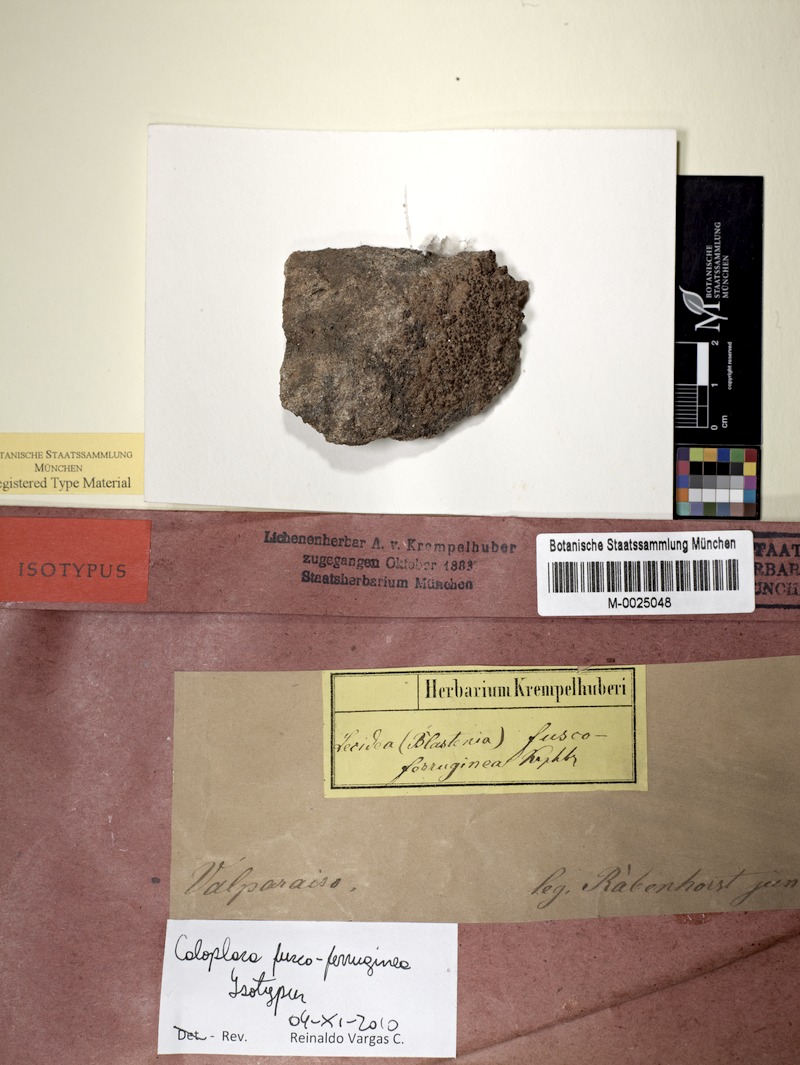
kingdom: Fungi
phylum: Ascomycota
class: Lecanoromycetes
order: Teloschistales
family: Teloschistaceae
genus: Caloplaca
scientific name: Caloplaca
